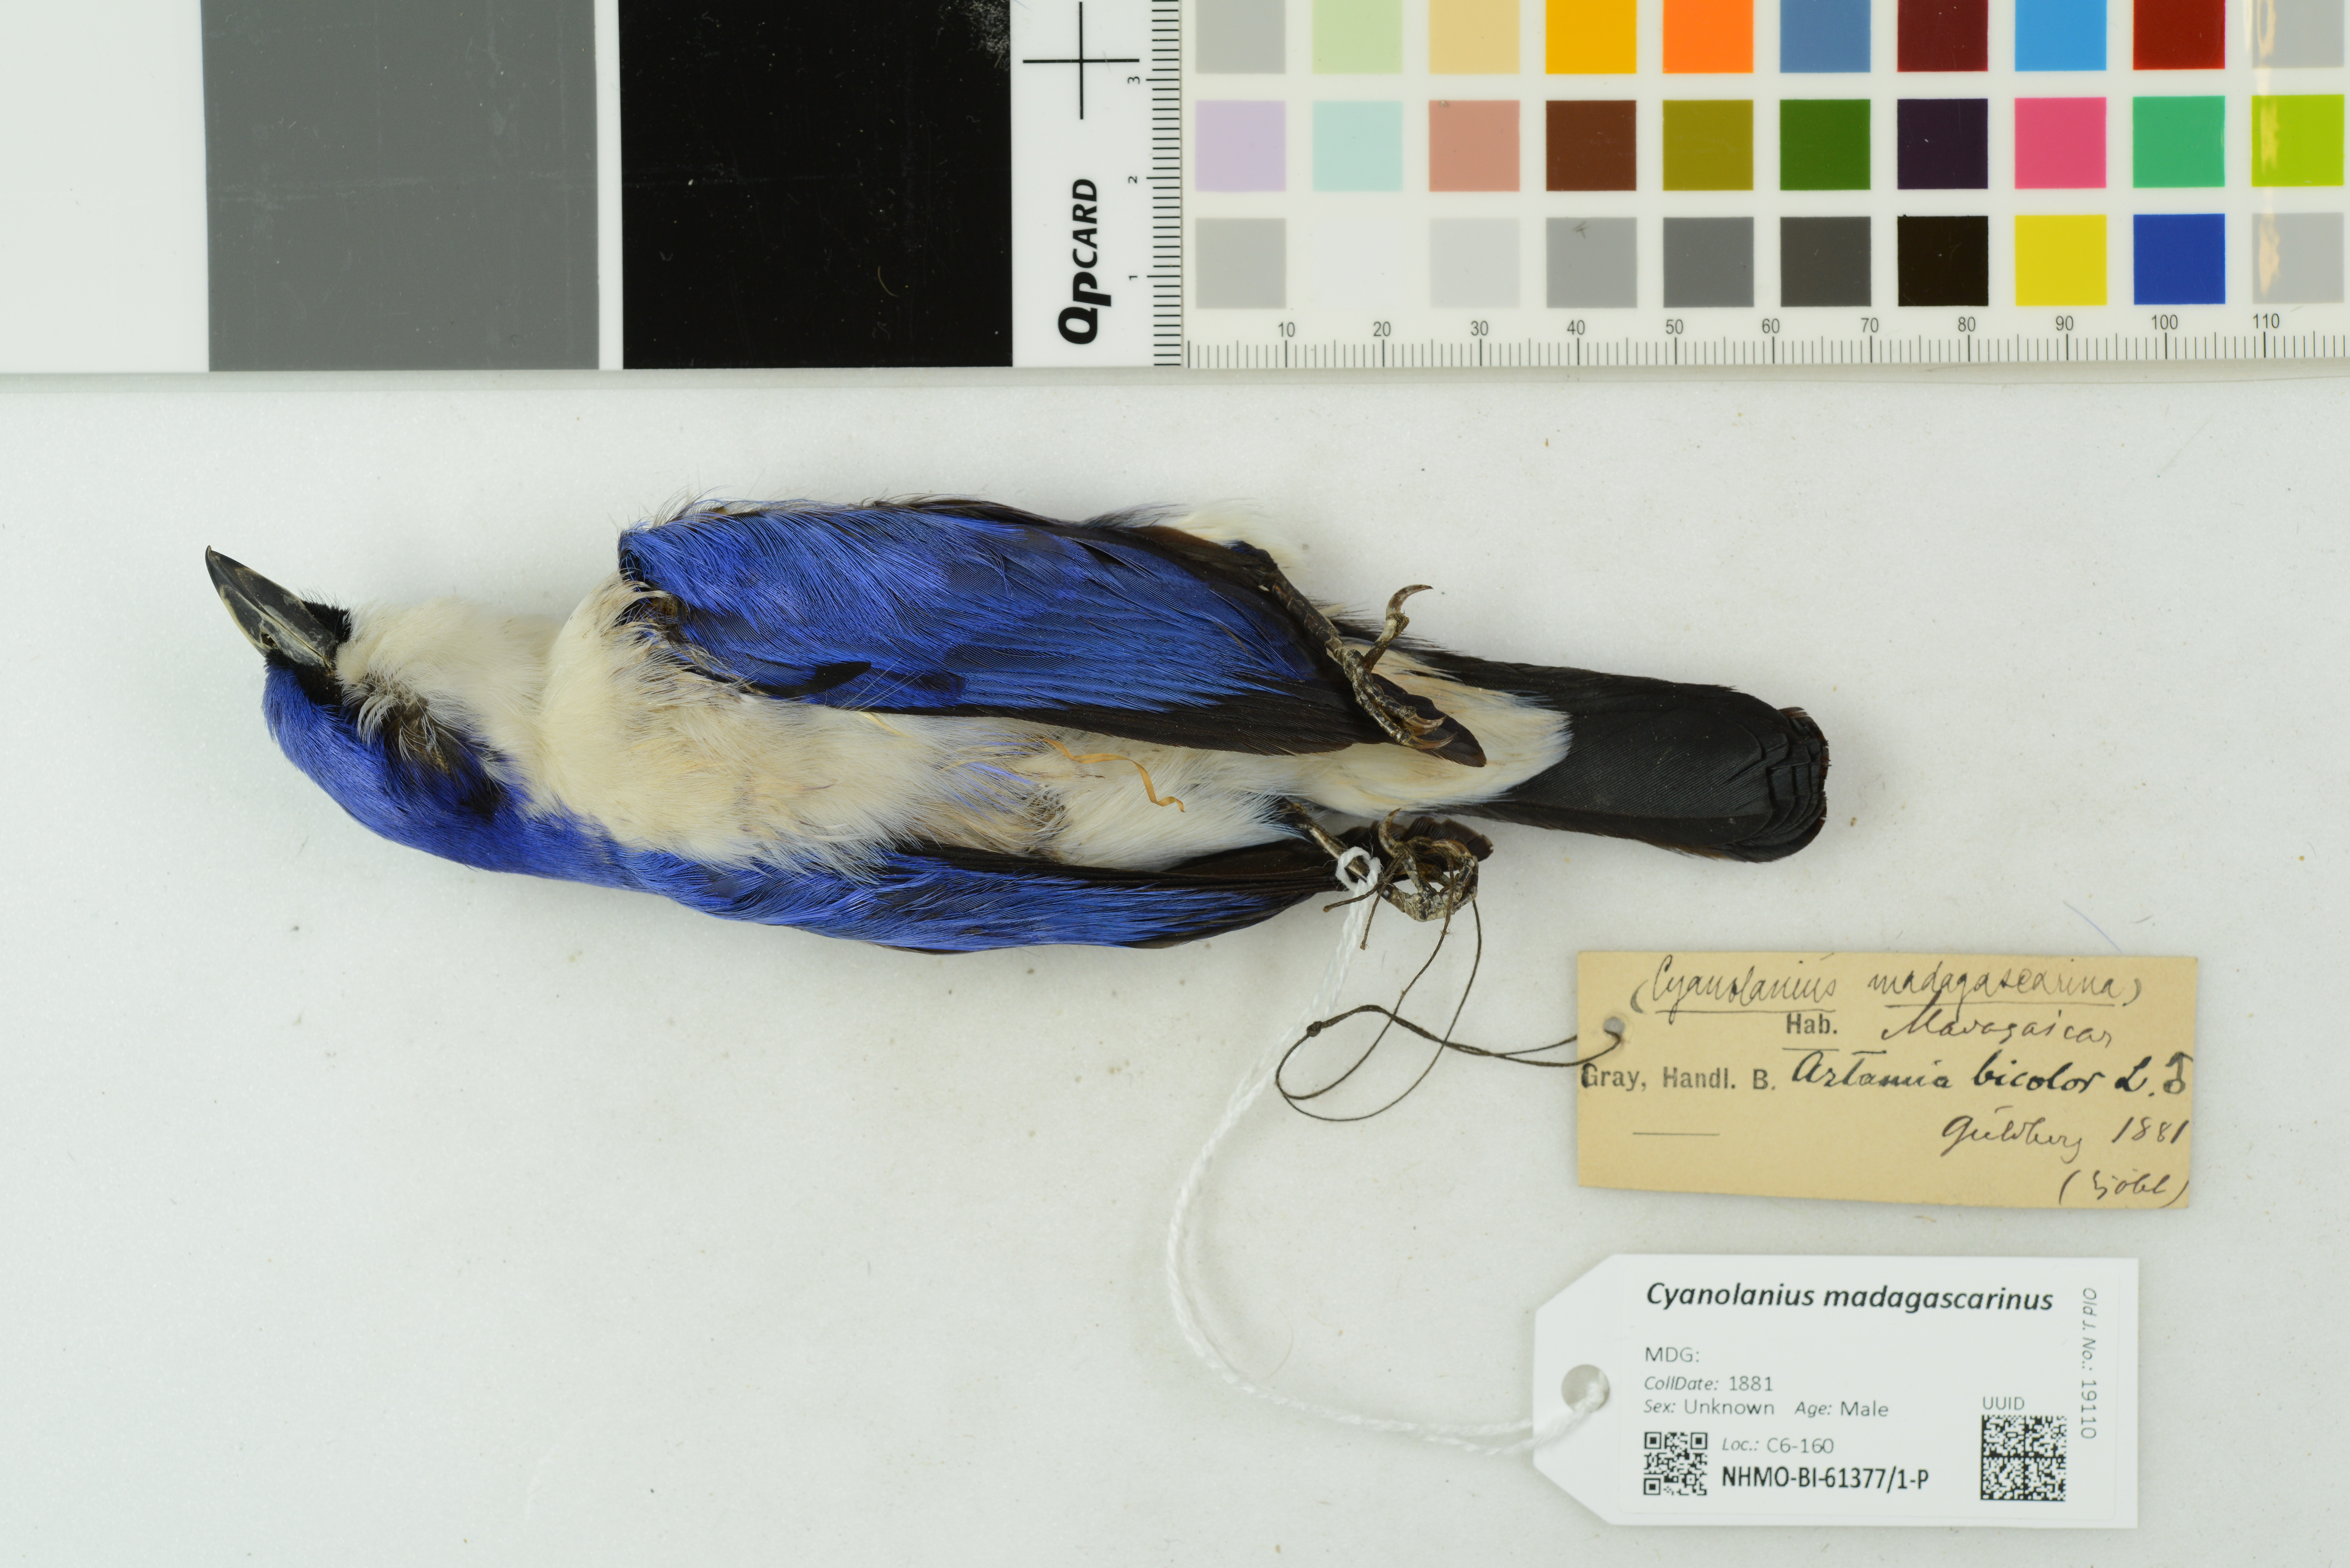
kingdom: Animalia
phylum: Chordata
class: Aves
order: Passeriformes
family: Vangidae
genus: Cyanolanius
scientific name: Cyanolanius madagascarinus
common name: Blue vanga
